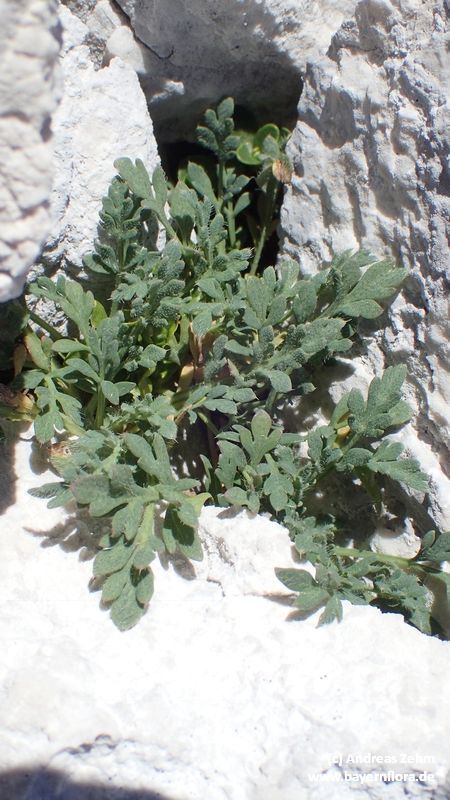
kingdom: Plantae
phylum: Tracheophyta
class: Magnoliopsida
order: Ranunculales
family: Papaveraceae
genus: Papaver
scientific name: Papaver alpinum
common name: Austrian poppy
